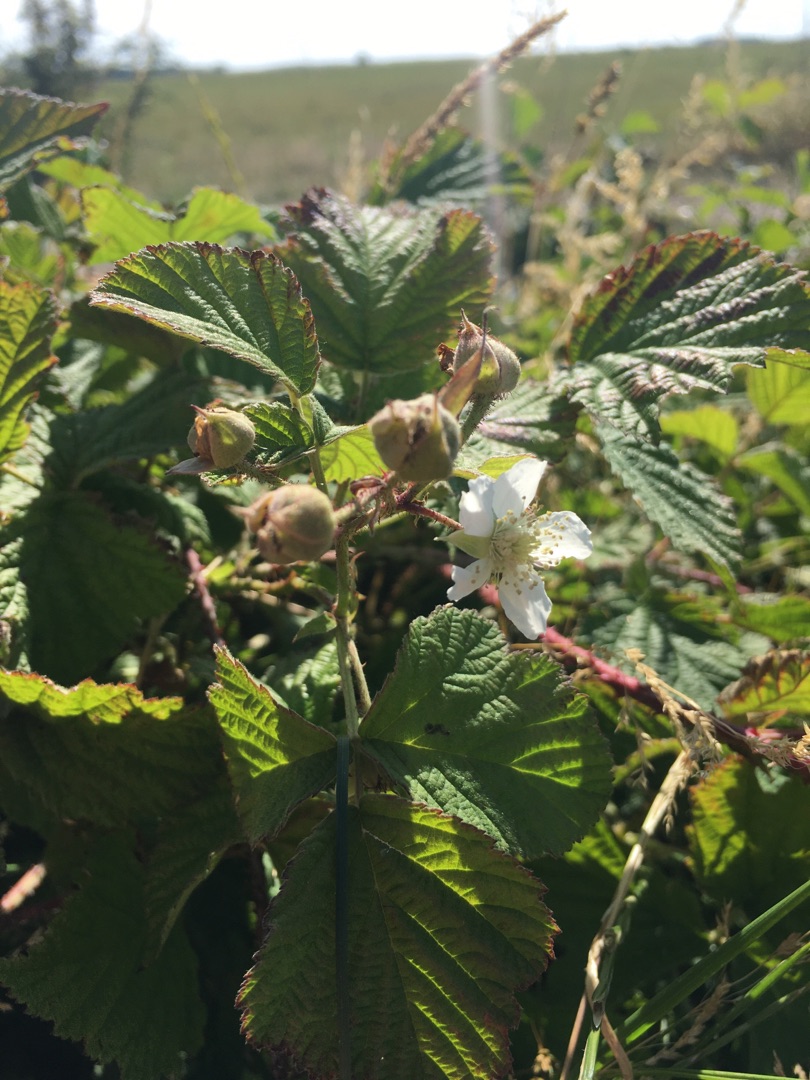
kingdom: Plantae
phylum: Tracheophyta
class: Magnoliopsida
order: Rosales
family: Rosaceae
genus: Rubus
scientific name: Rubus caesius
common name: Korbær
